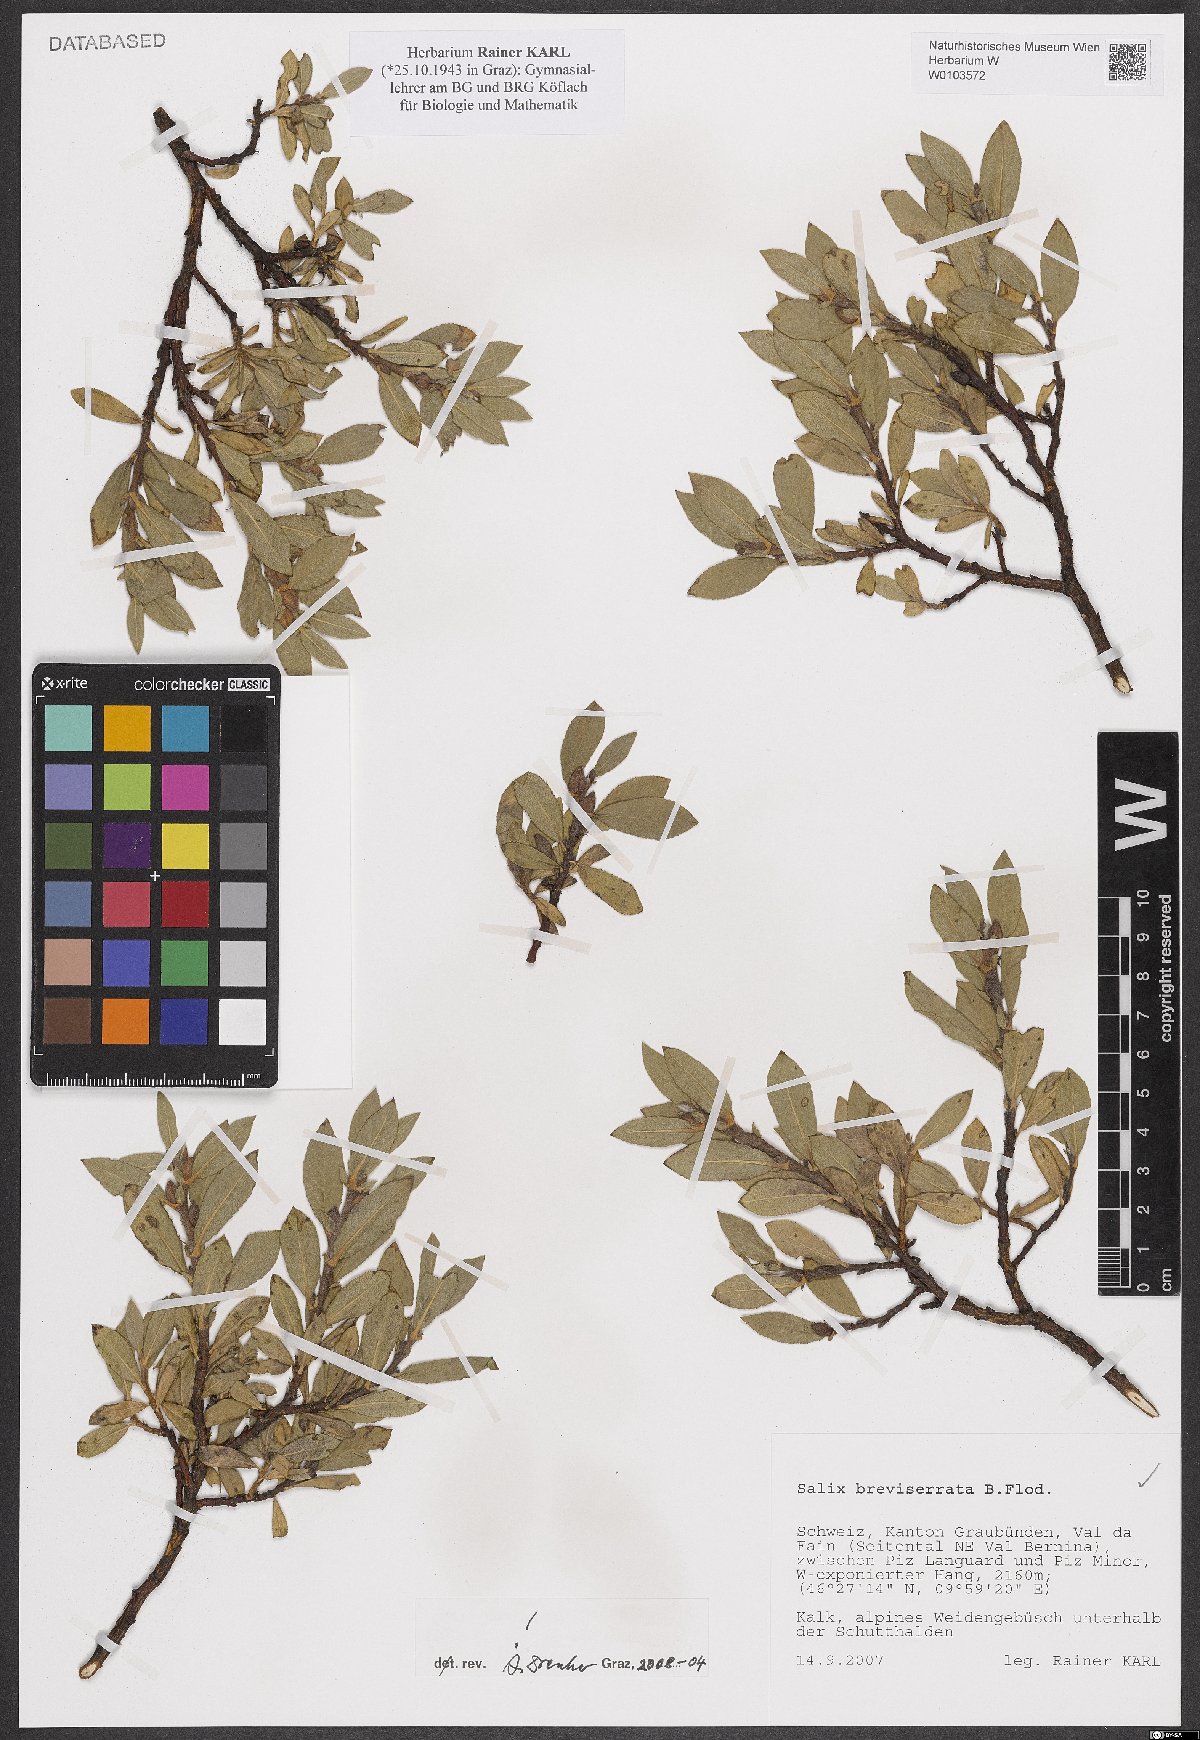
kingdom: Plantae
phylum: Tracheophyta
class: Magnoliopsida
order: Malpighiales
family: Salicaceae
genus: Salix
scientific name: Salix breviserrata
